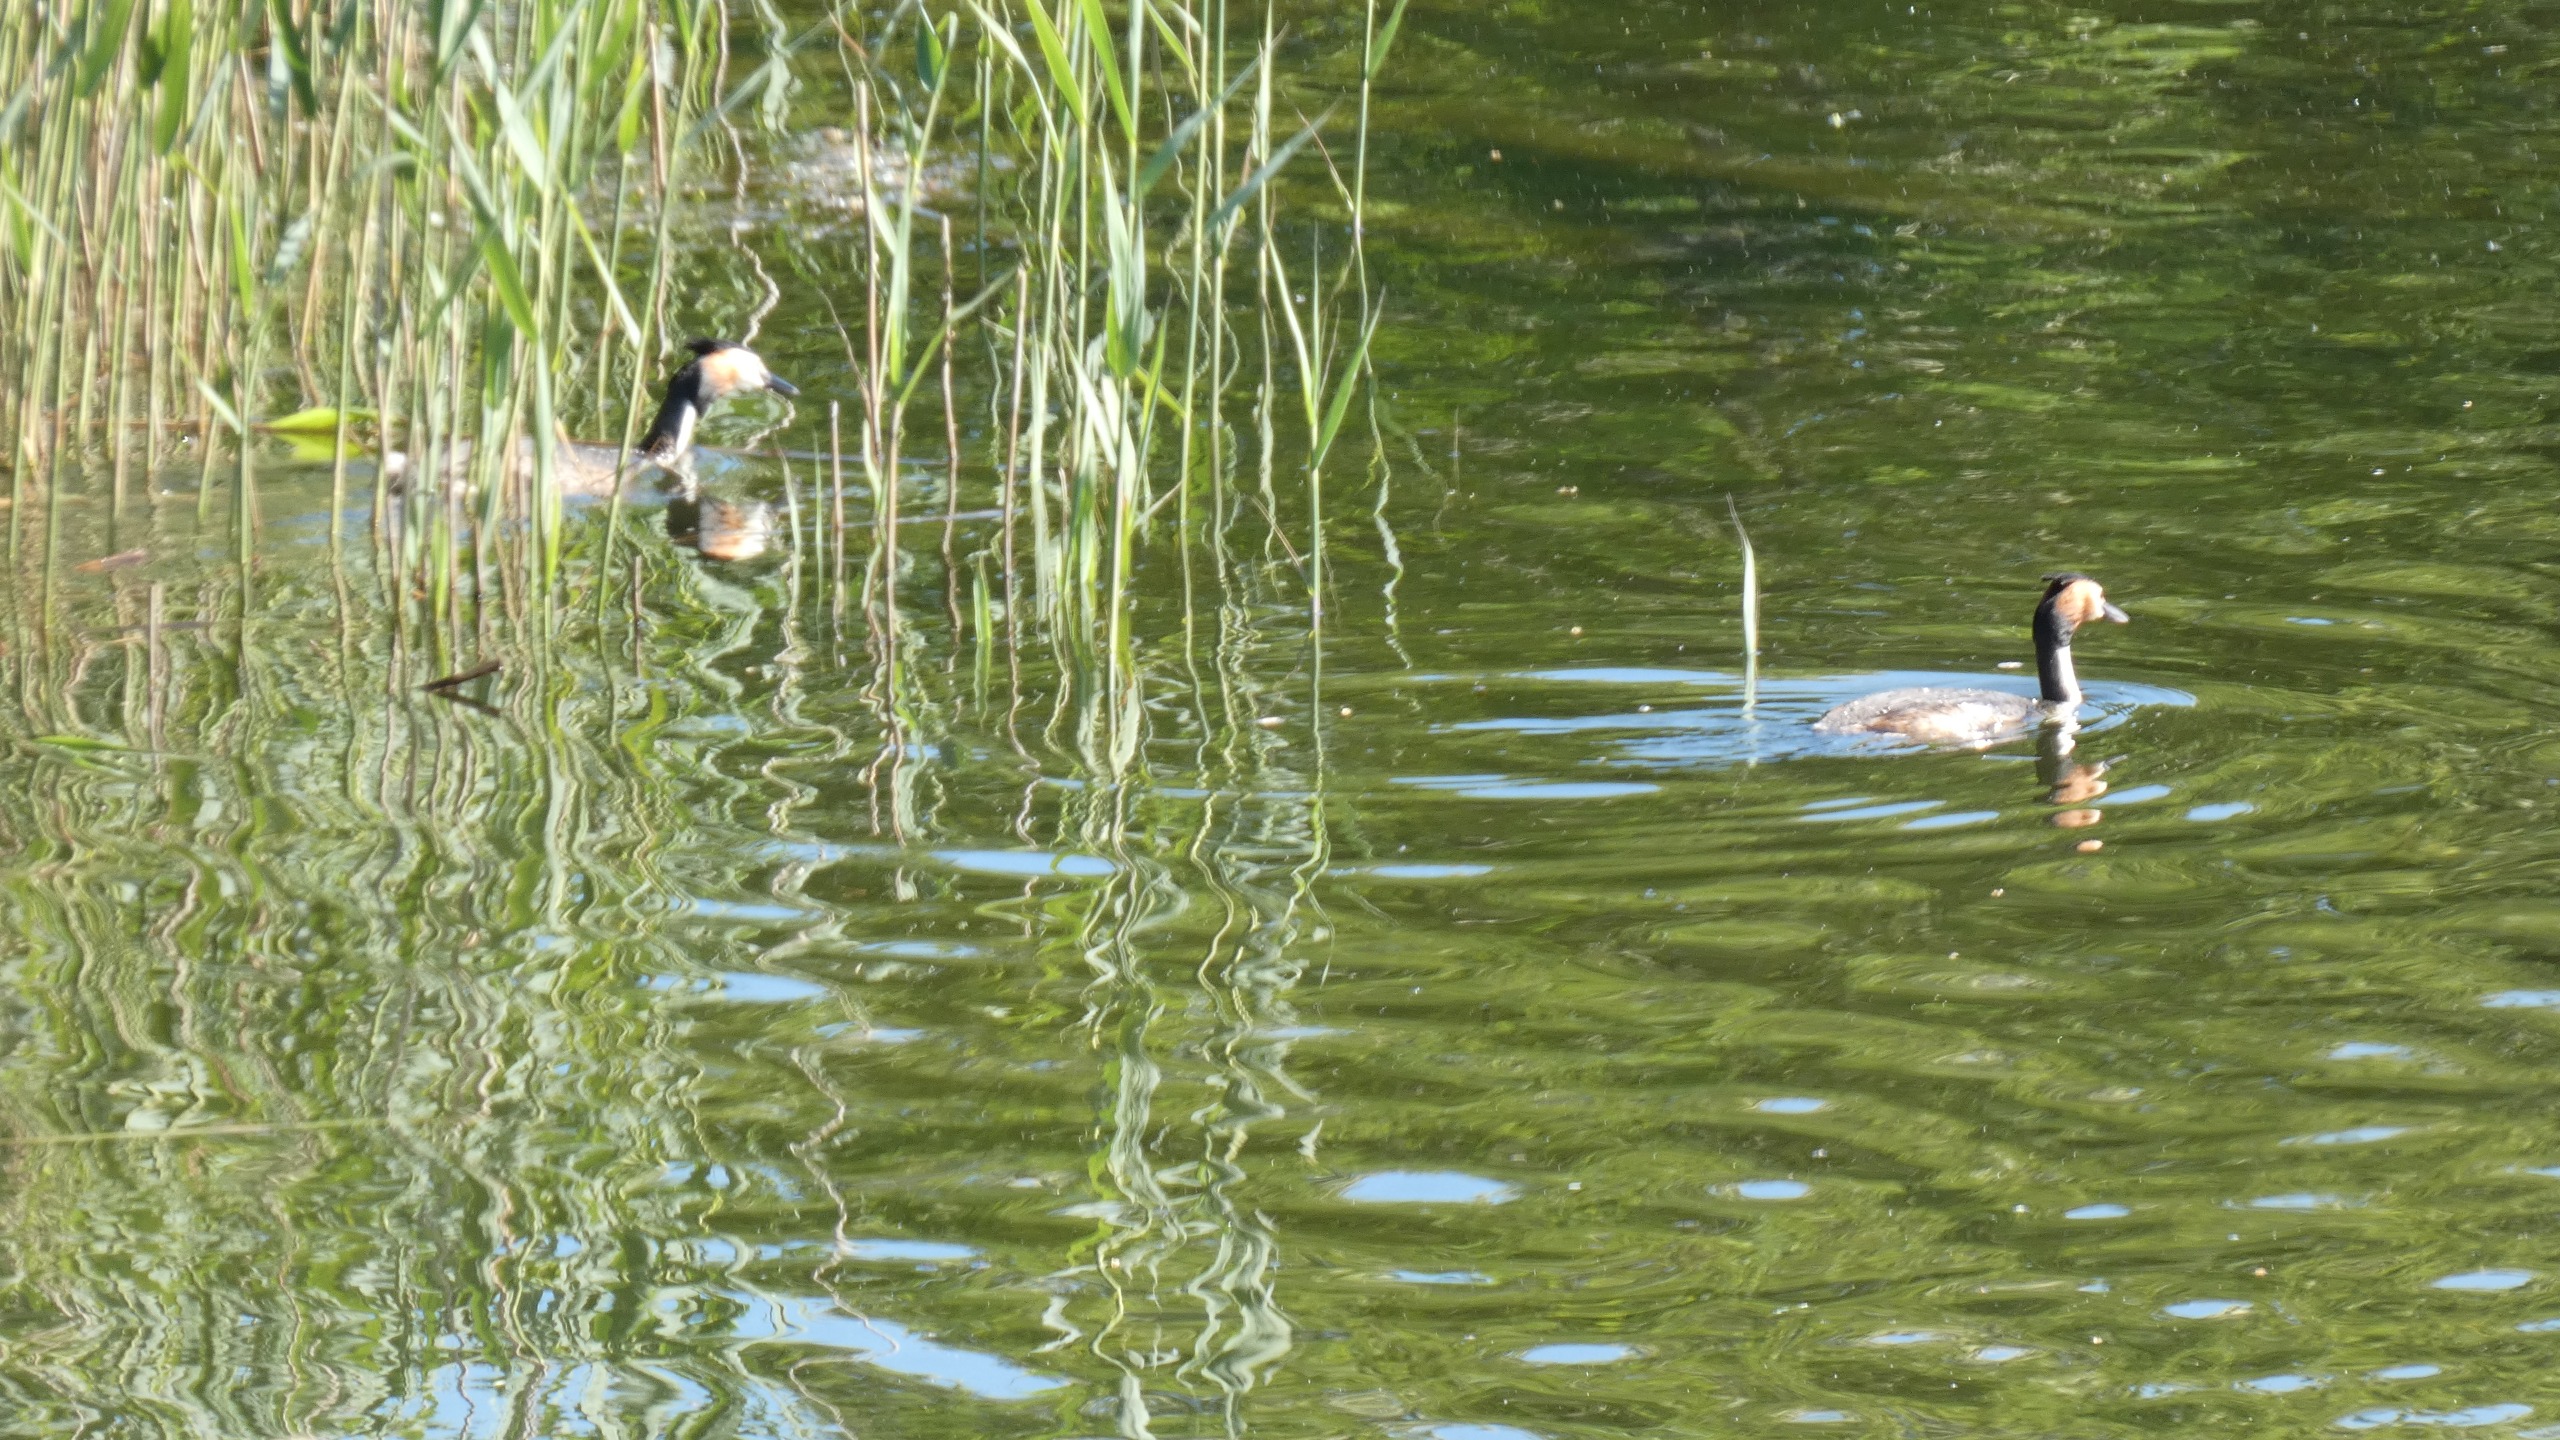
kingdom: Animalia
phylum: Chordata
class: Aves
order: Podicipediformes
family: Podicipedidae
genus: Podiceps
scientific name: Podiceps cristatus
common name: Toppet lappedykker
